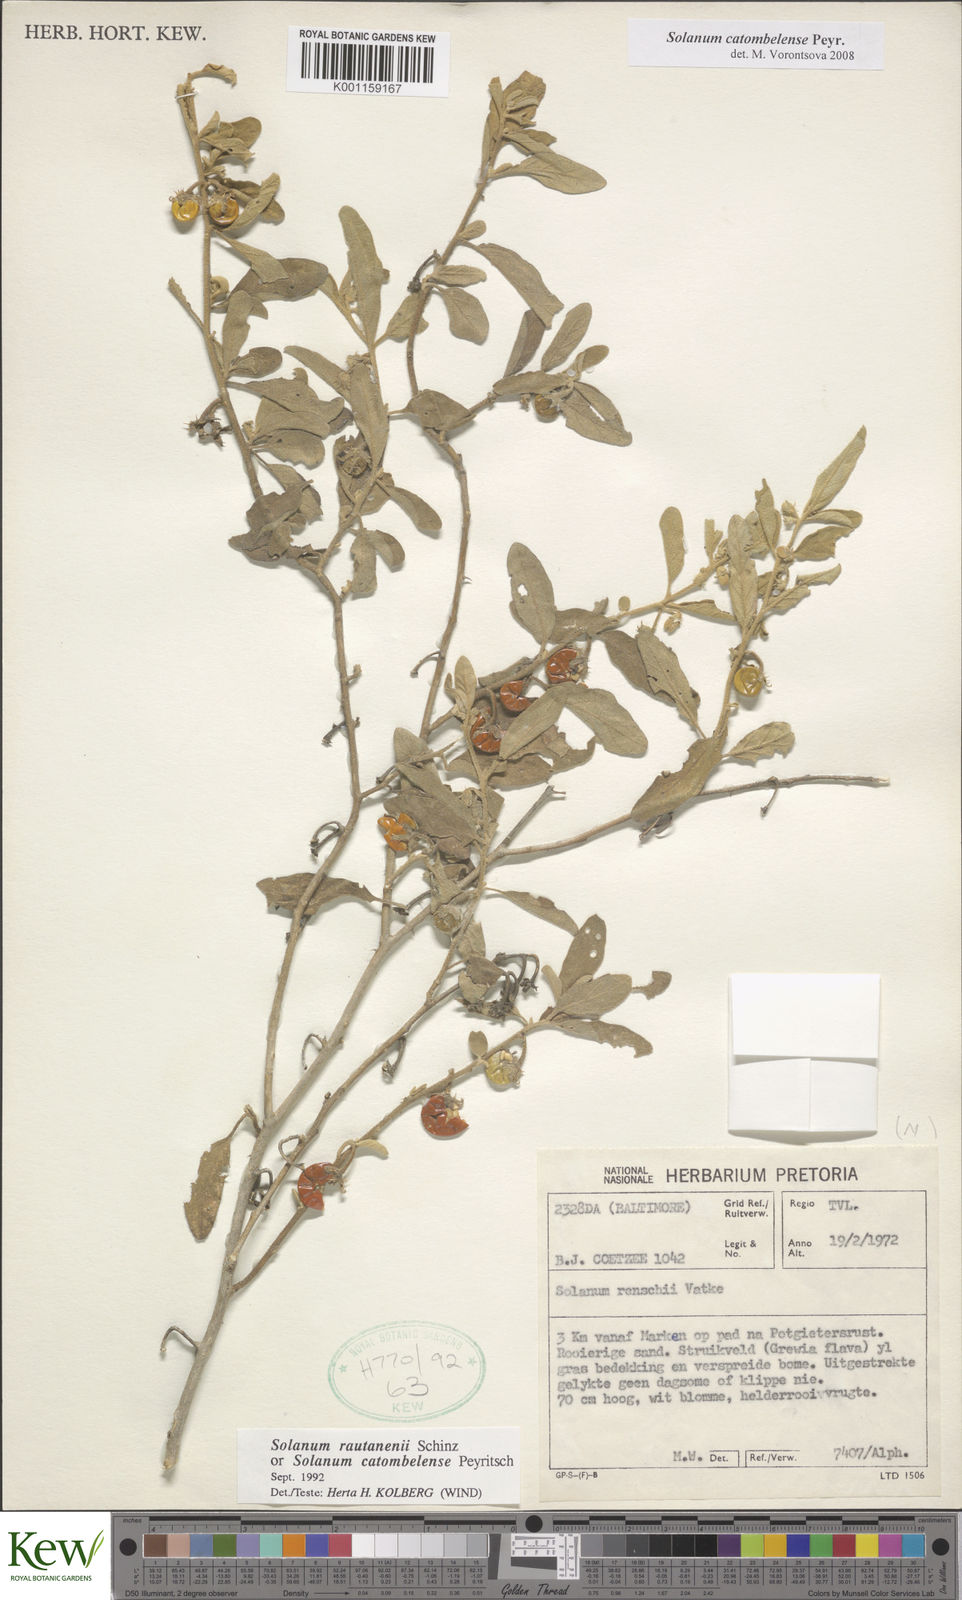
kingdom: Plantae
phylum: Tracheophyta
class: Magnoliopsida
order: Solanales
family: Solanaceae
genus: Solanum
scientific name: Solanum catombelense
